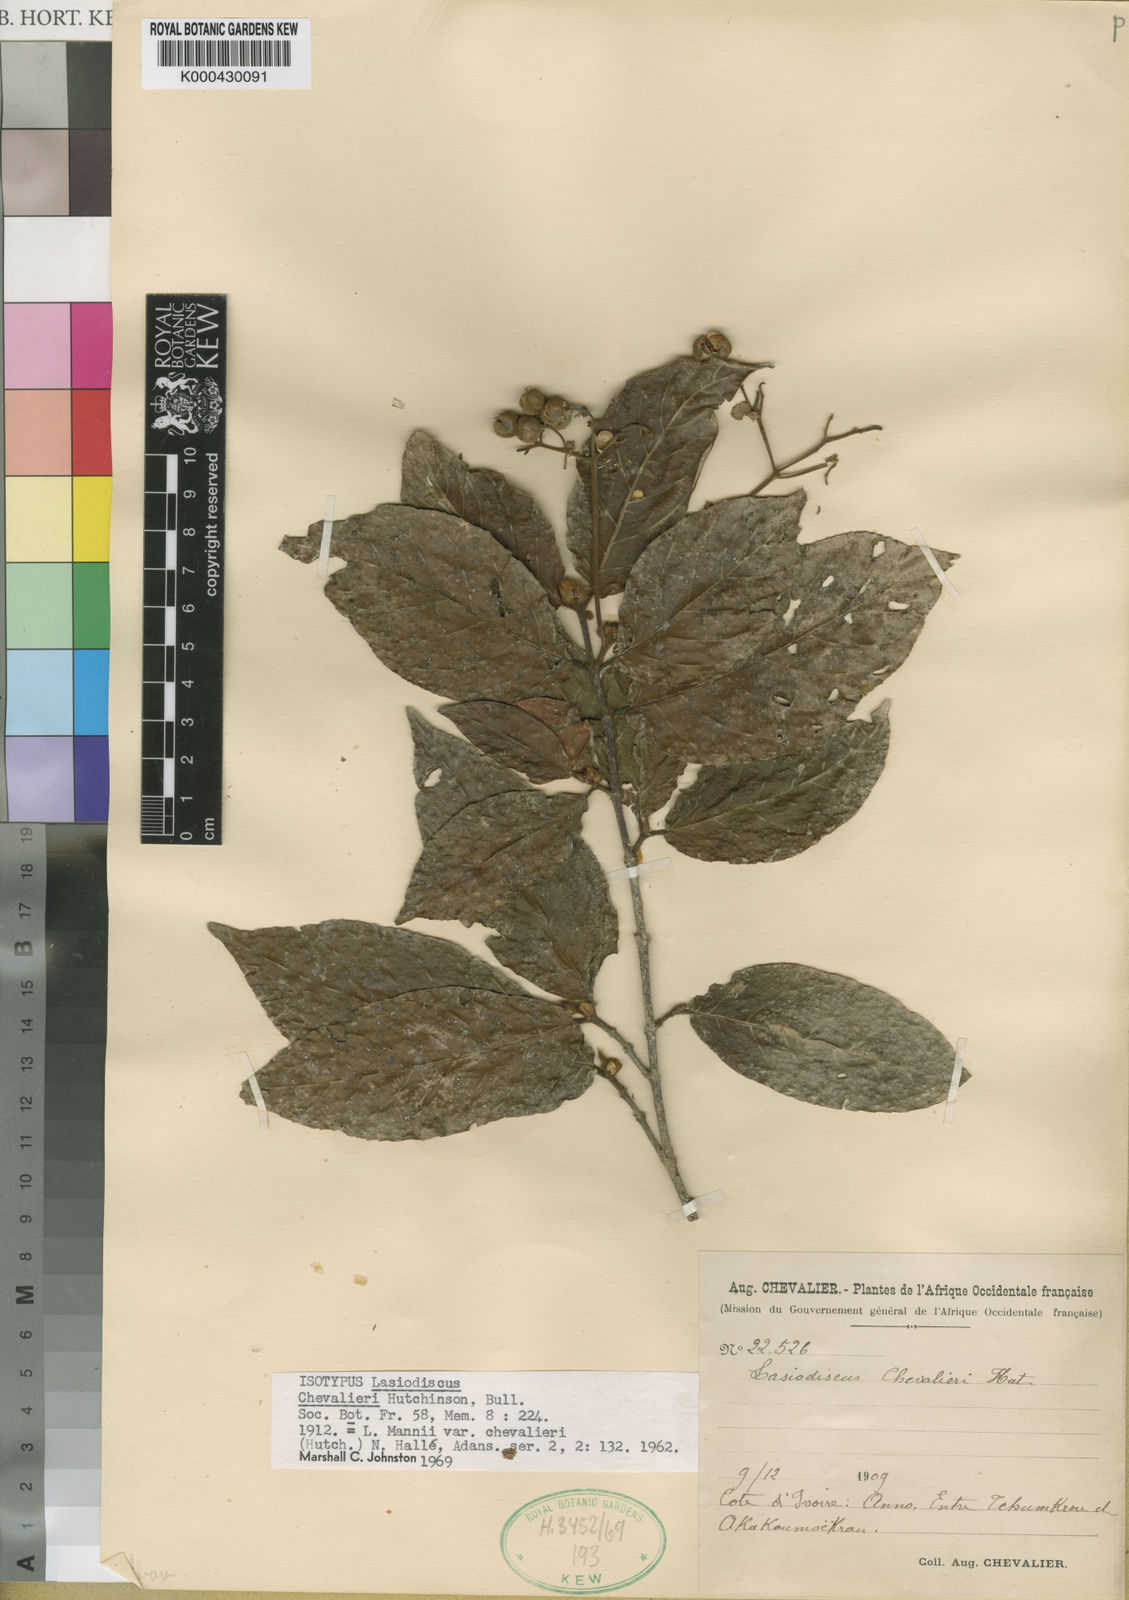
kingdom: Plantae
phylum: Tracheophyta
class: Magnoliopsida
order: Rosales
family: Rhamnaceae
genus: Lasiodiscus
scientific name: Lasiodiscus chevalieri
